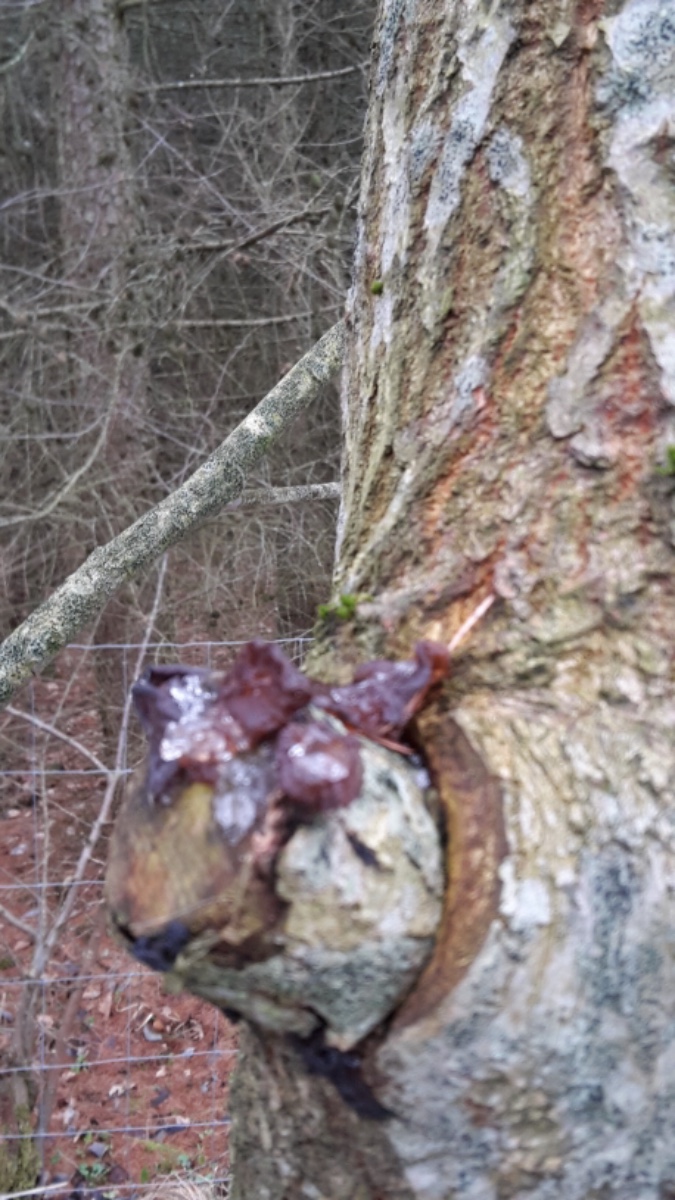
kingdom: Fungi
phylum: Basidiomycota
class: Agaricomycetes
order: Auriculariales
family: Auriculariaceae
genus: Exidia
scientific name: Exidia recisa
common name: pile-bævretop
